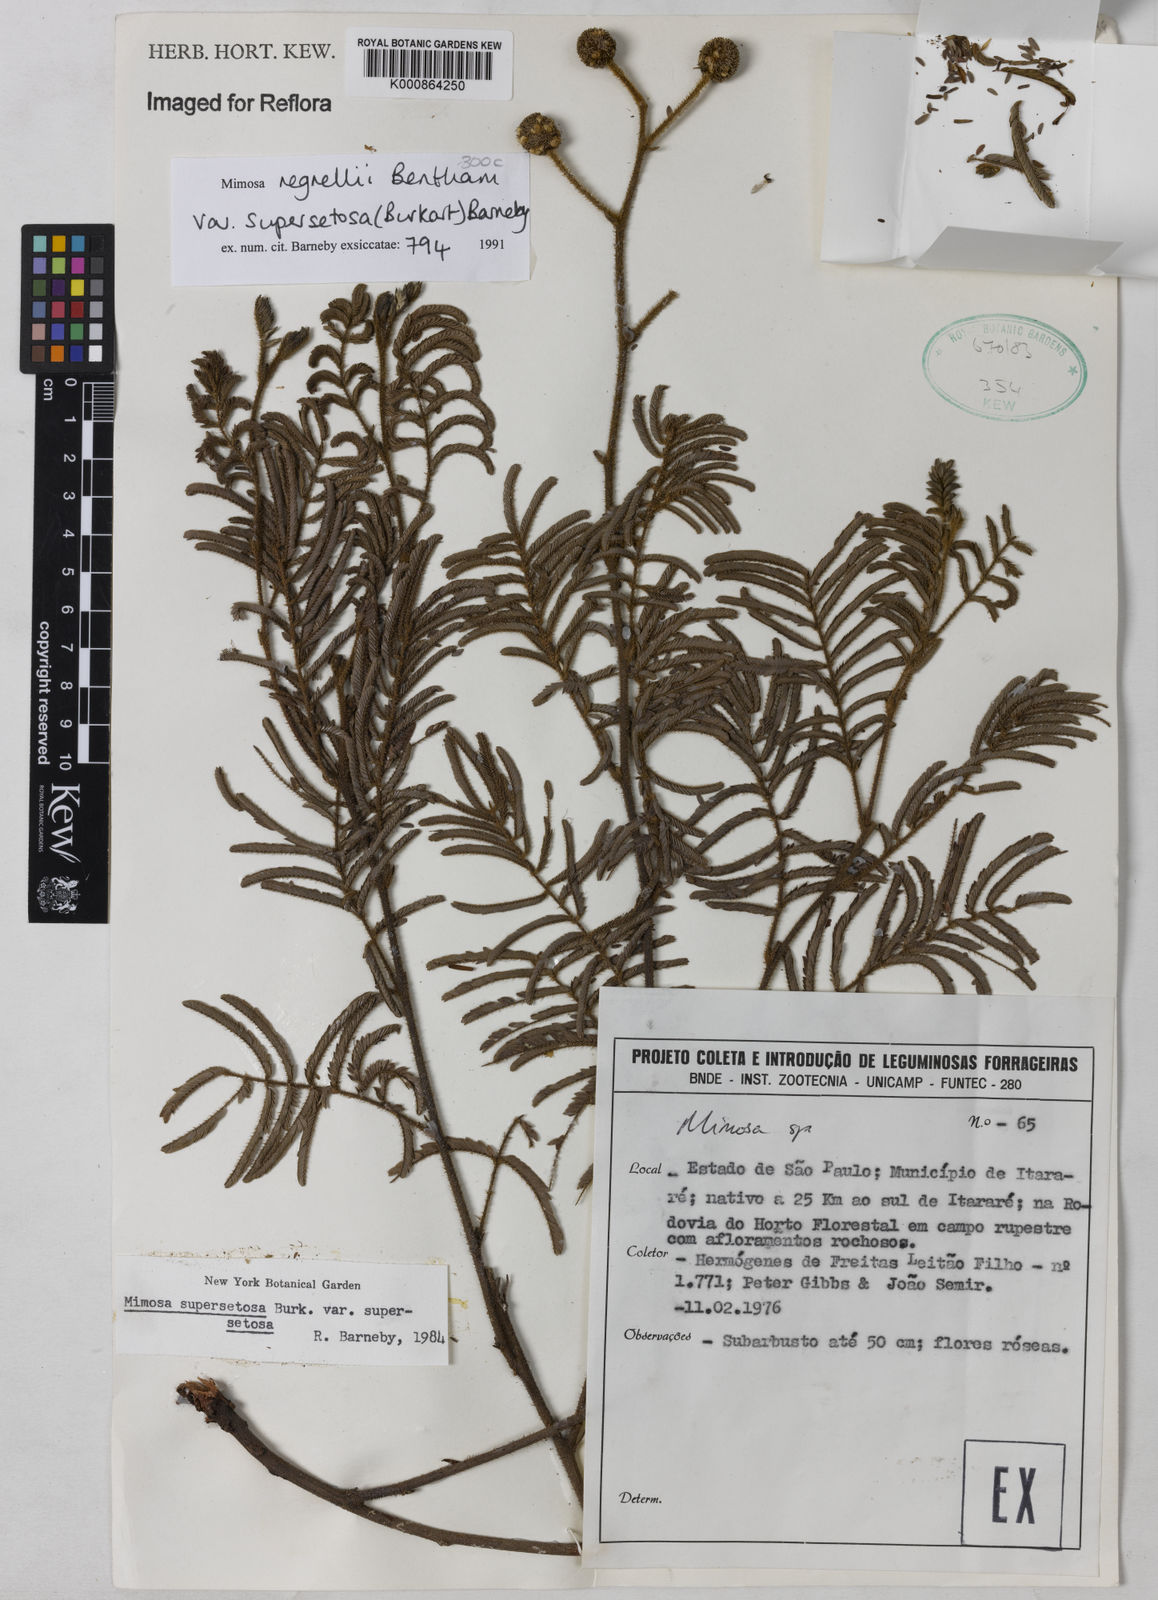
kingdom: Plantae
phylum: Tracheophyta
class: Magnoliopsida
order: Fabales
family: Fabaceae
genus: Mimosa
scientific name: Mimosa regnellii
